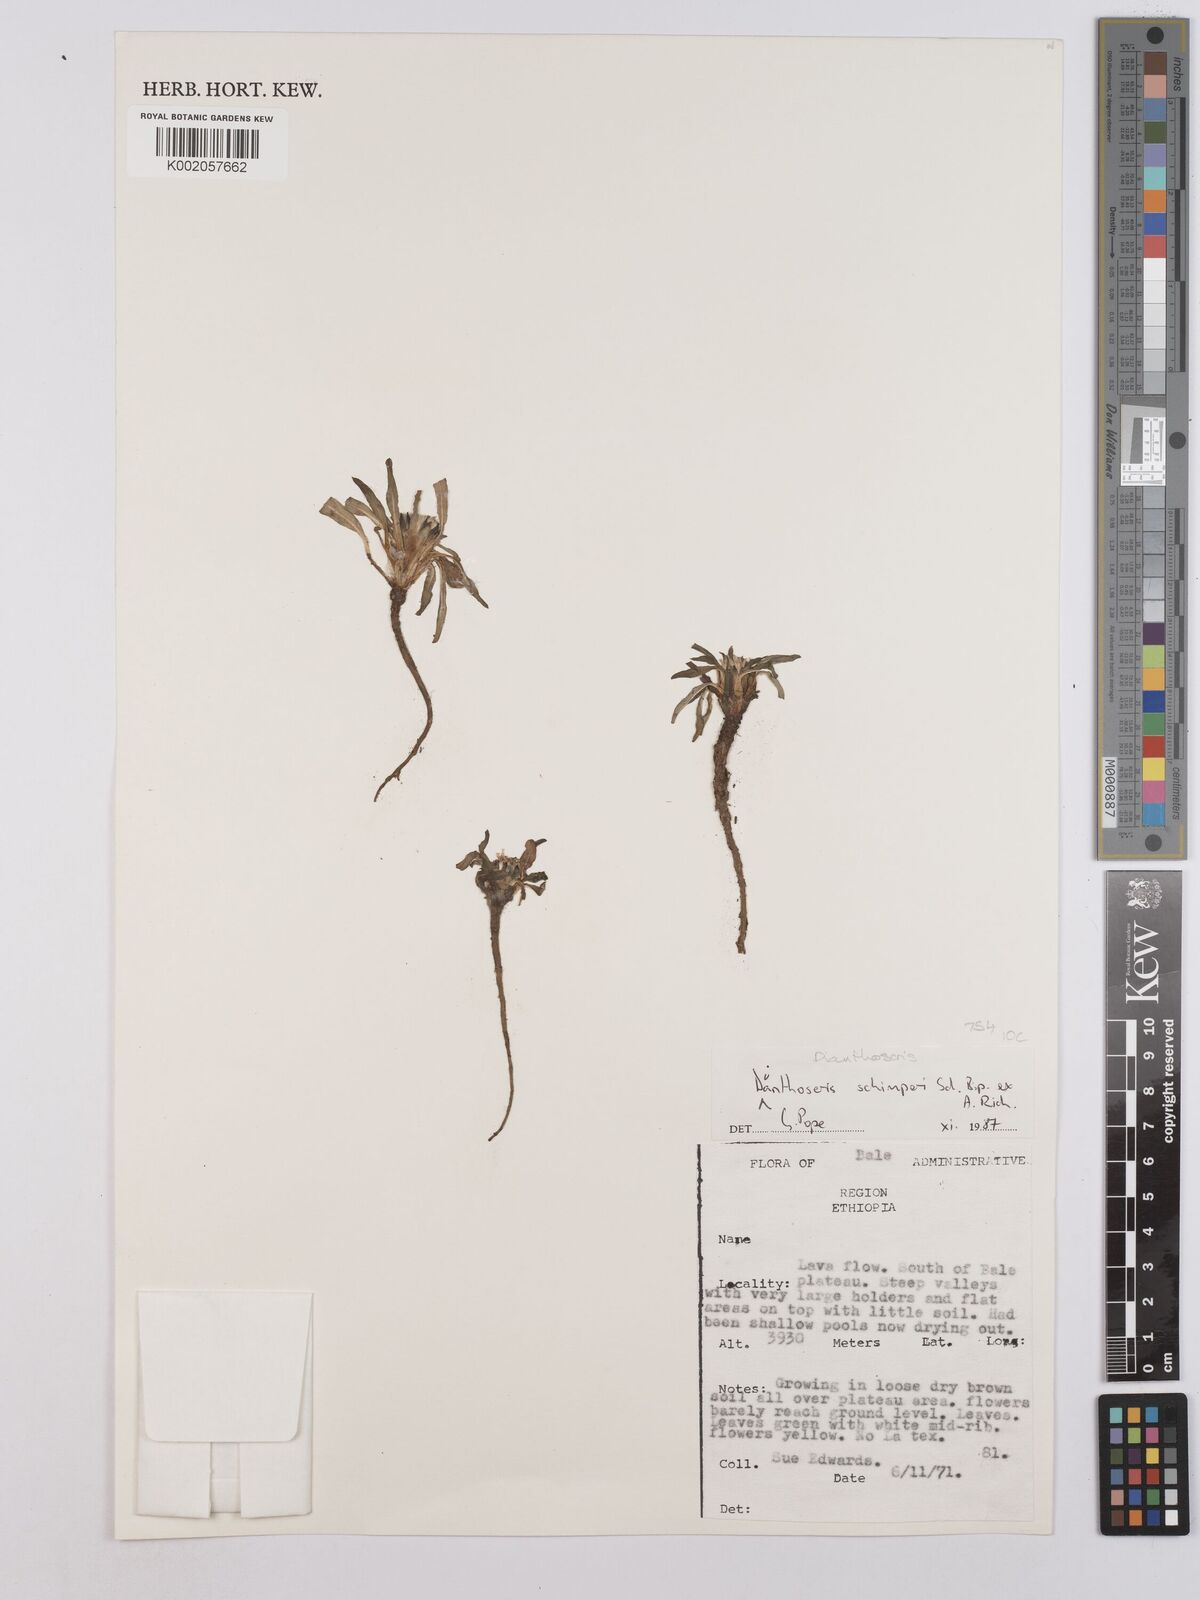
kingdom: Plantae
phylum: Tracheophyta
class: Magnoliopsida
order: Asterales
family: Asteraceae
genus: Crepis
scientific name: Crepis foetida
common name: Stinking hawk's-beard
